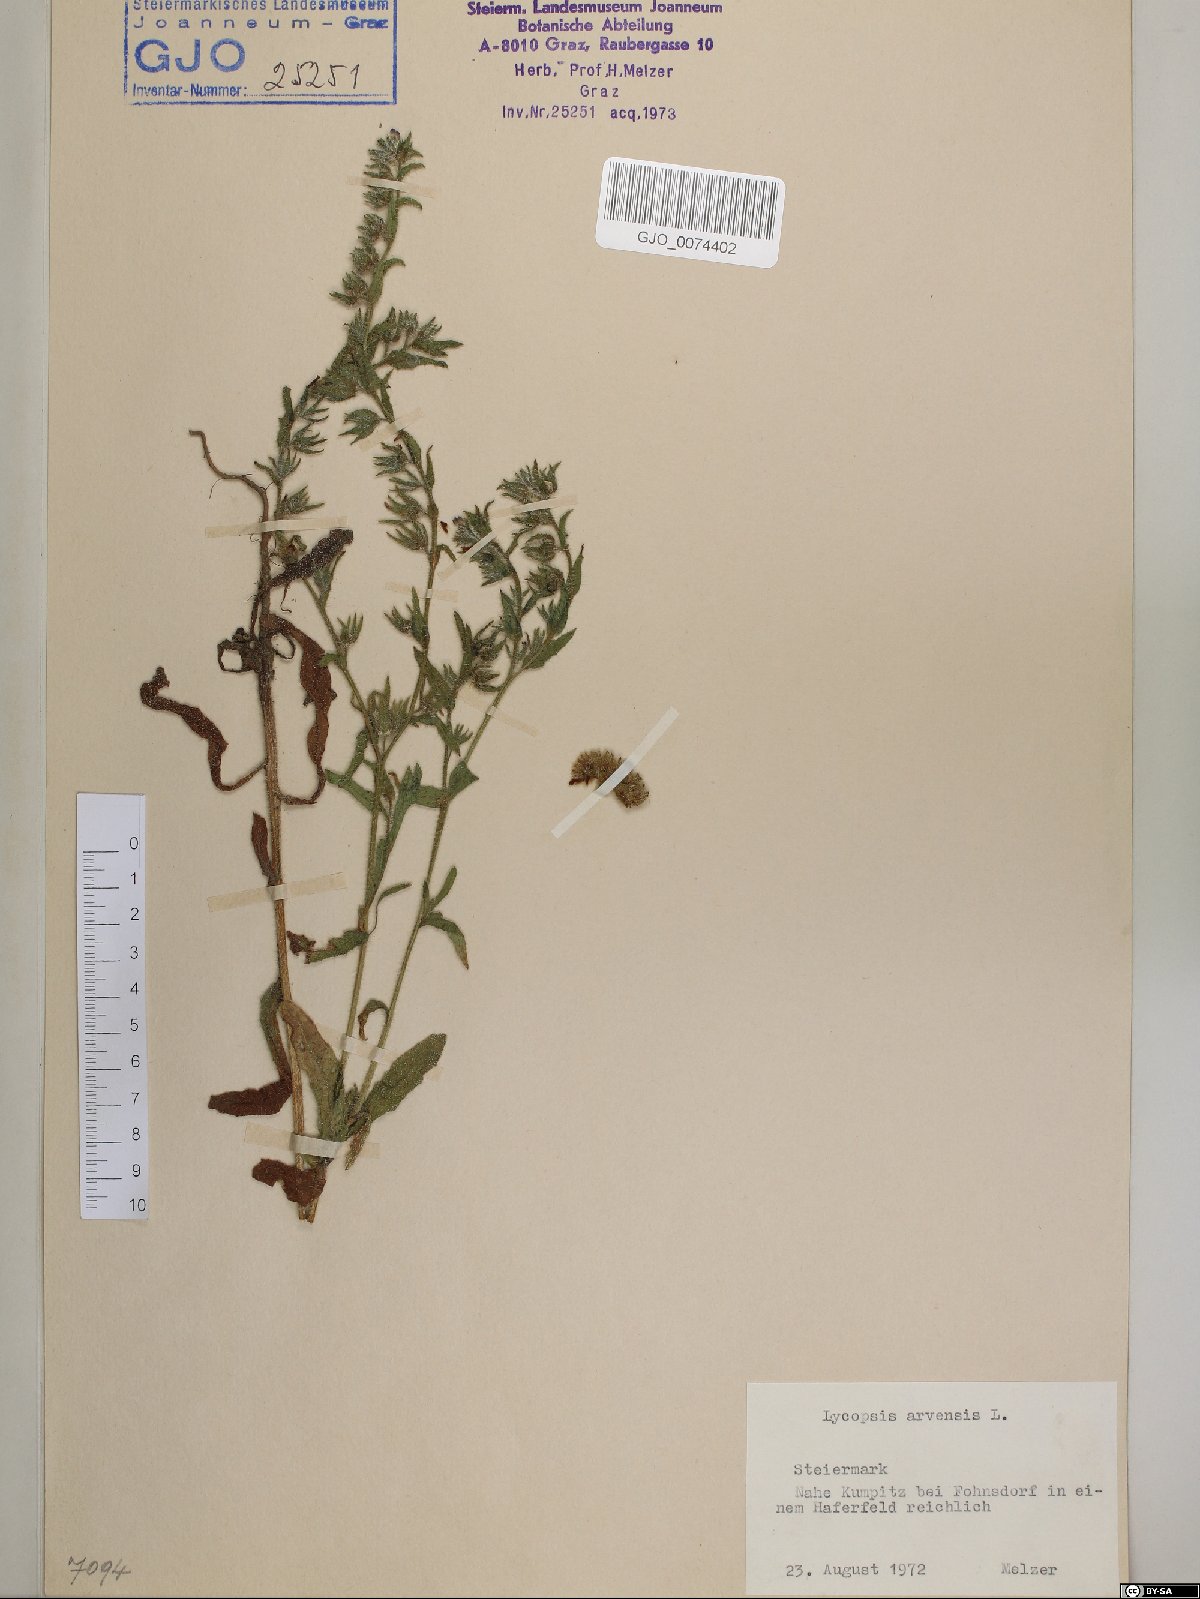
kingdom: Plantae
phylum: Tracheophyta
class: Magnoliopsida
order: Boraginales
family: Boraginaceae
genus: Lycopsis
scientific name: Lycopsis arvensis
